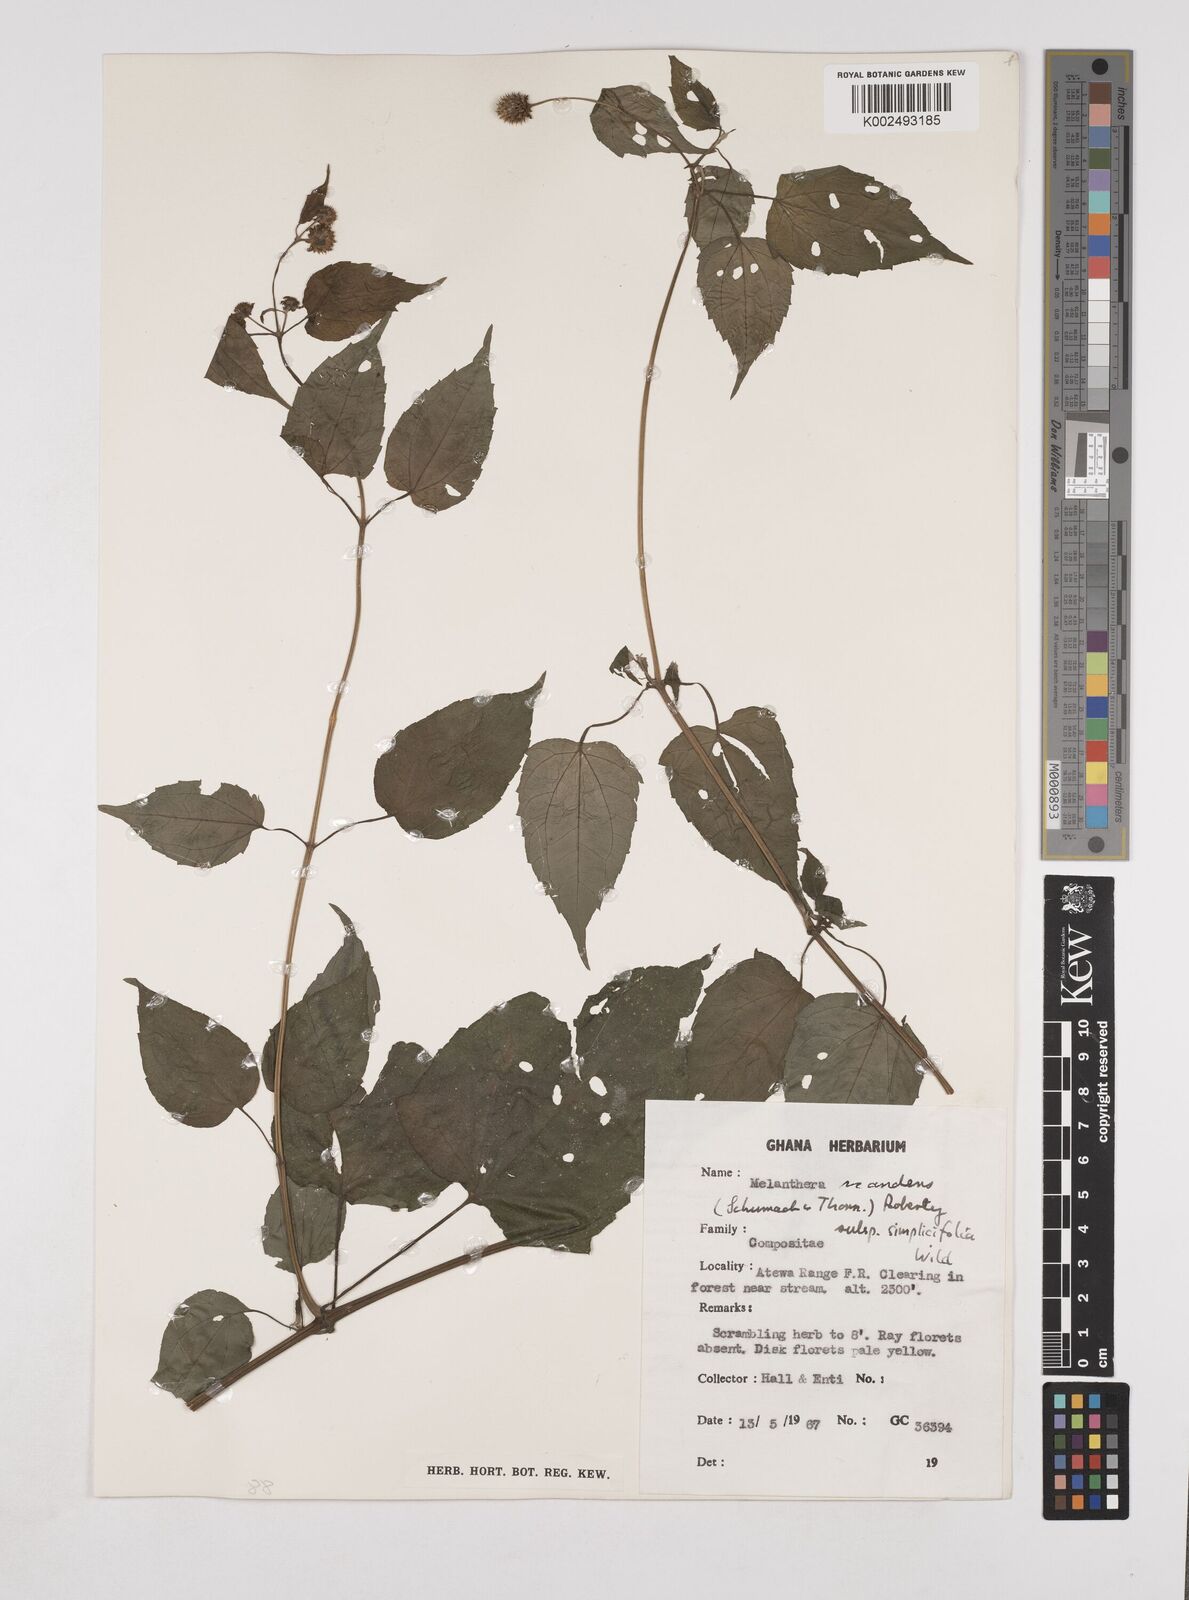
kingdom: Plantae
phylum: Tracheophyta
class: Magnoliopsida
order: Asterales
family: Asteraceae
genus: Lipotriche
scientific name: Lipotriche scandens
